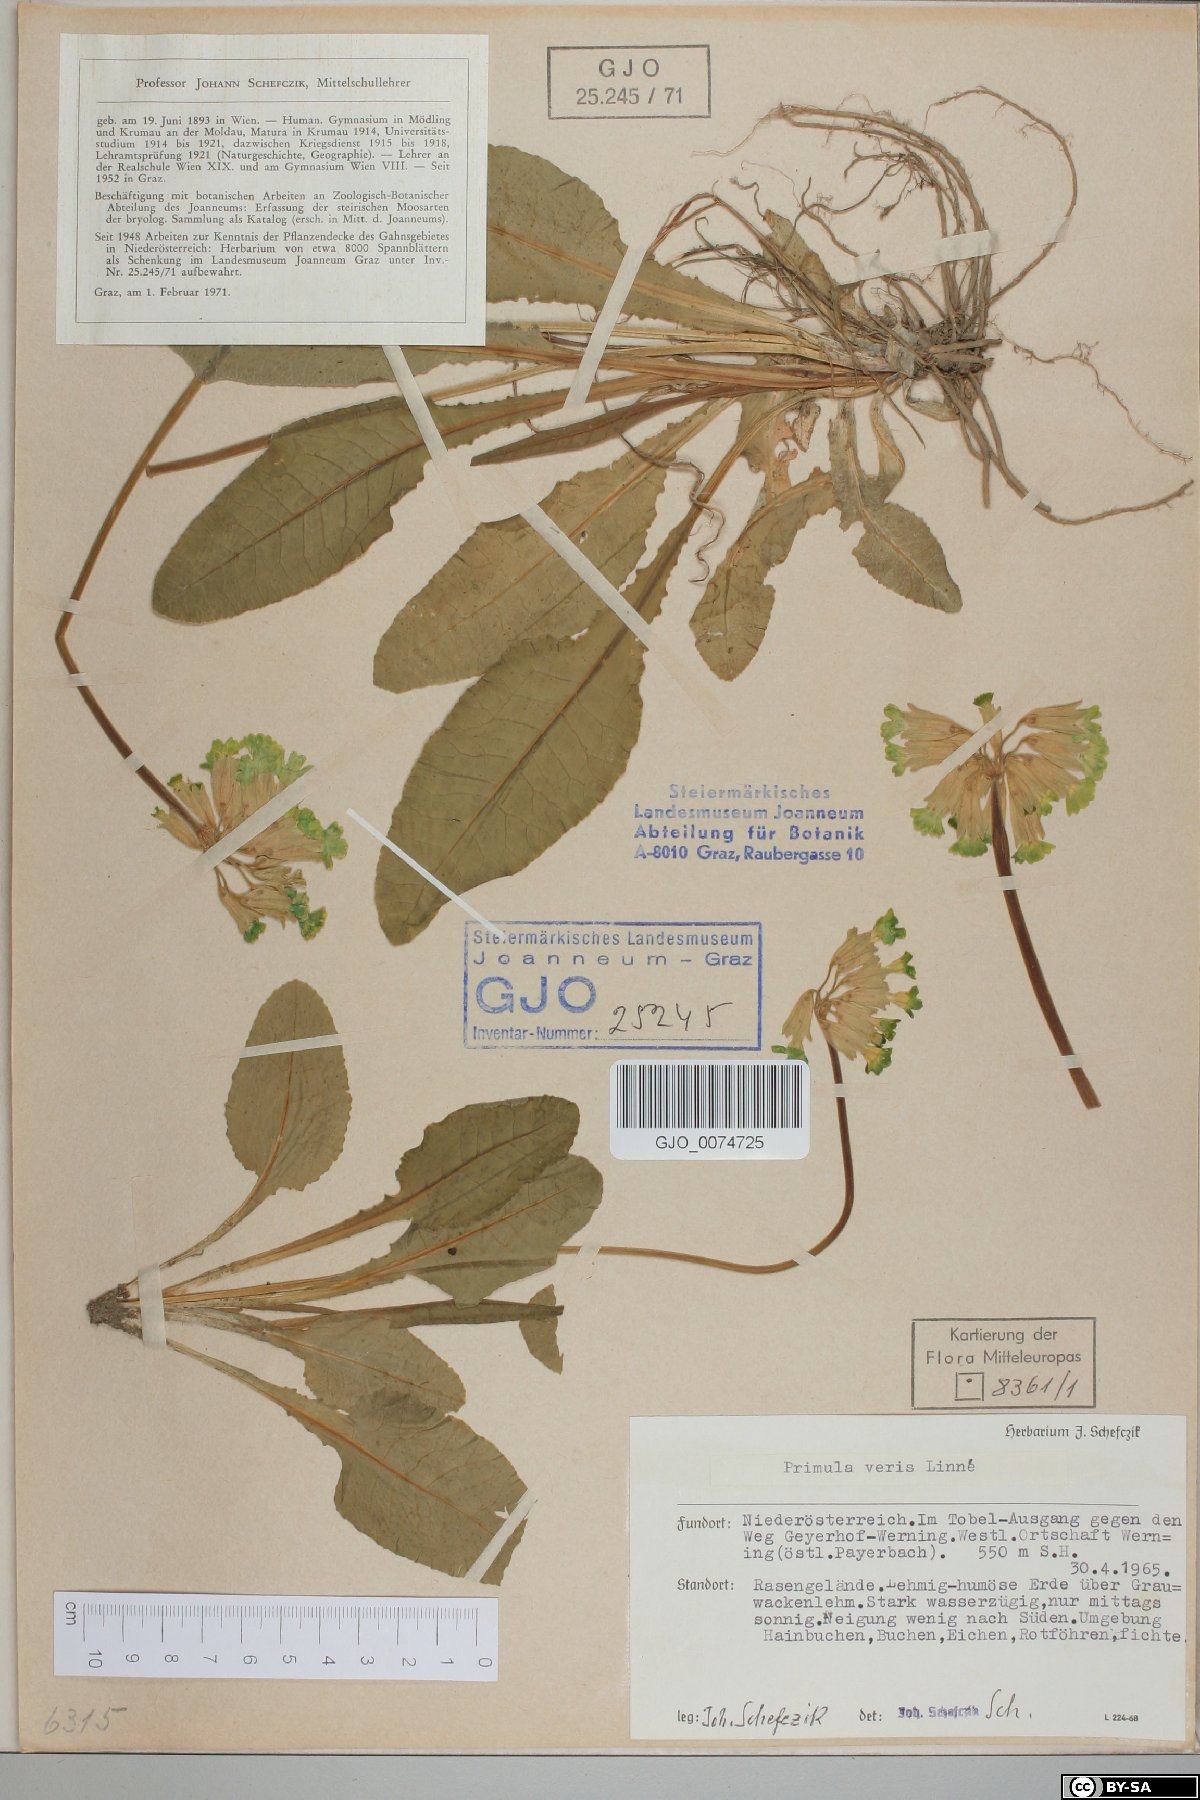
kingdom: Plantae
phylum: Tracheophyta
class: Magnoliopsida
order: Ericales
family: Primulaceae
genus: Primula
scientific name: Primula veris
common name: Cowslip
